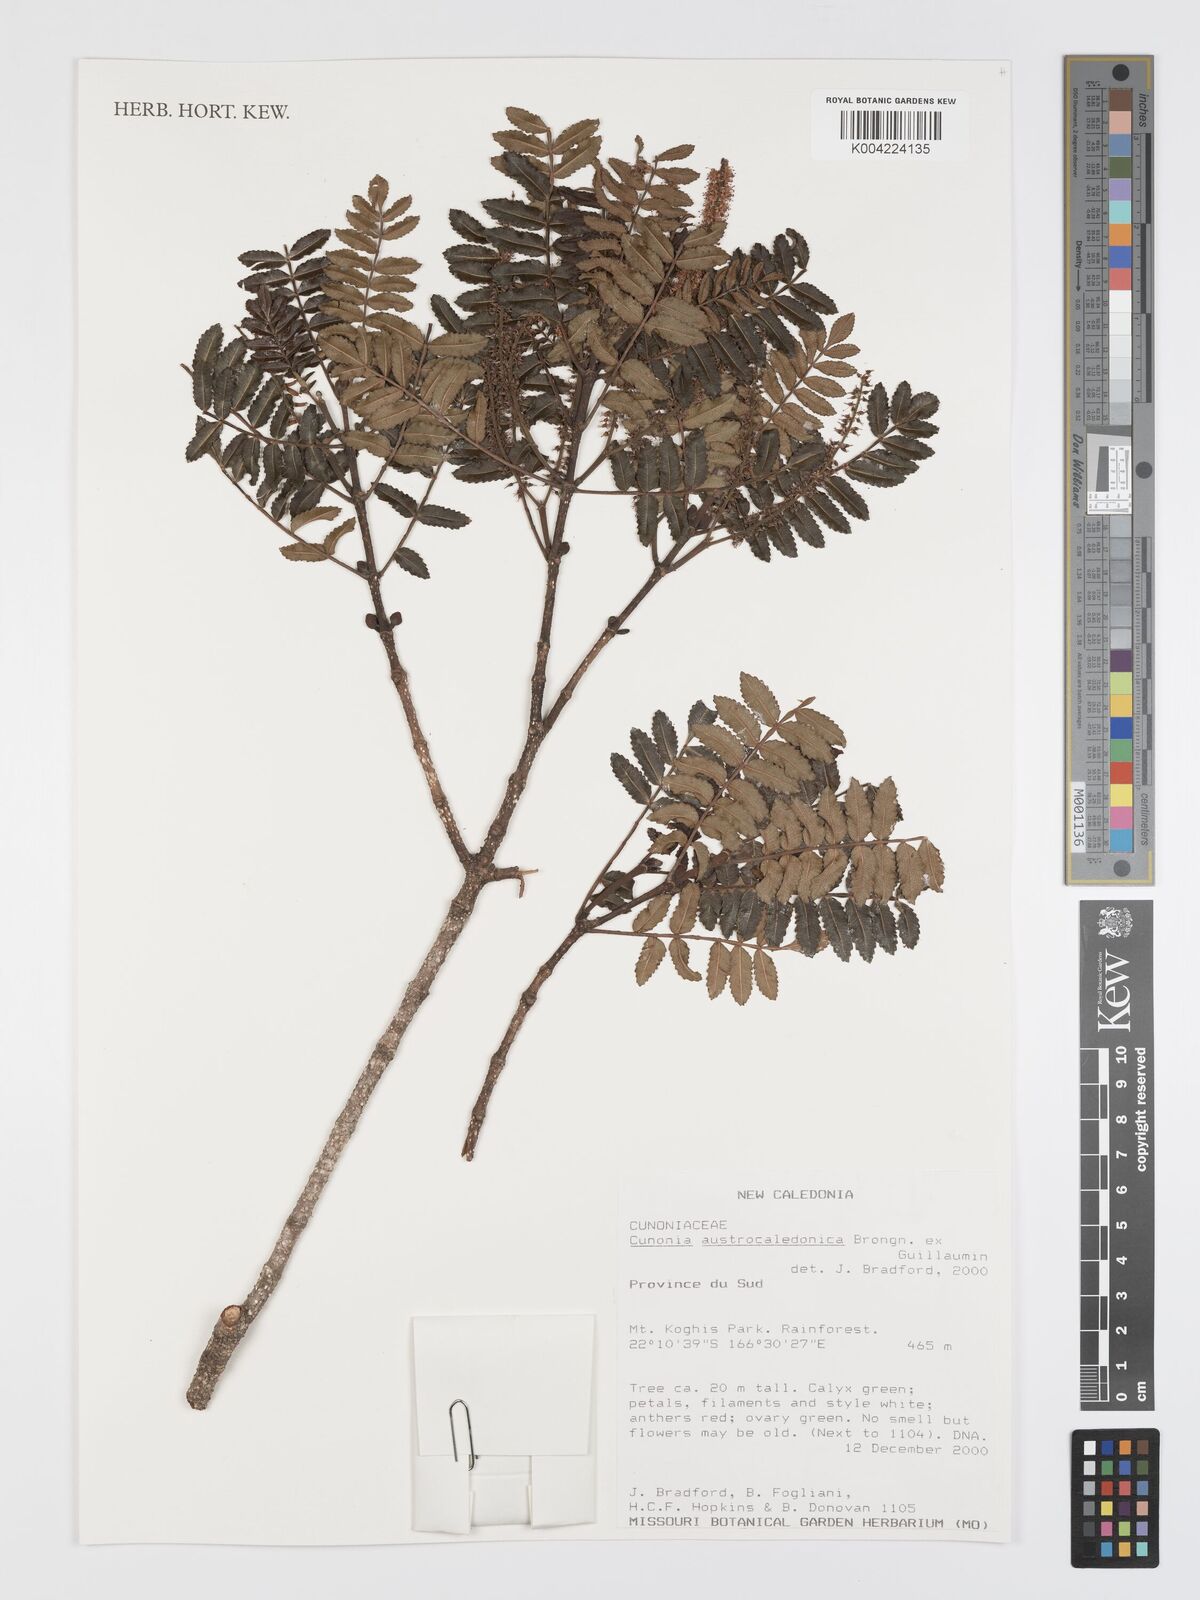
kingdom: Plantae
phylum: Tracheophyta
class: Magnoliopsida
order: Oxalidales
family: Cunoniaceae
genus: Cunonia
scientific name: Cunonia austrocaledonica
